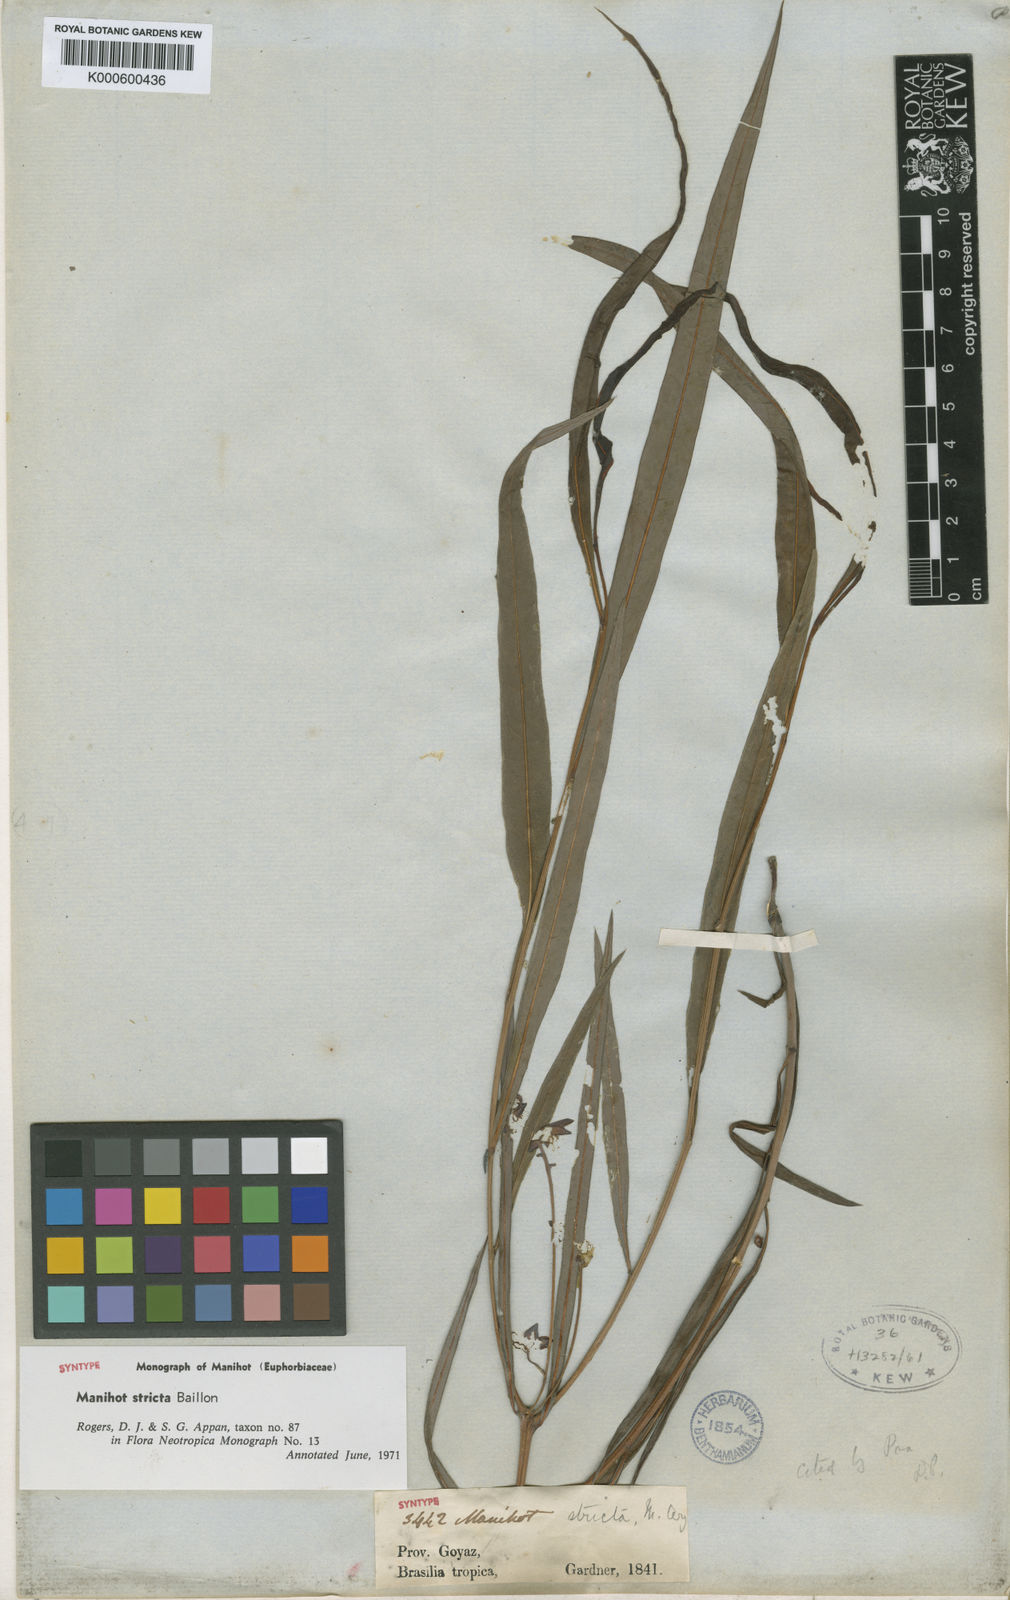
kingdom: Plantae
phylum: Tracheophyta
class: Magnoliopsida
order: Malpighiales
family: Euphorbiaceae
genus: Manihot
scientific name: Manihot stricta
